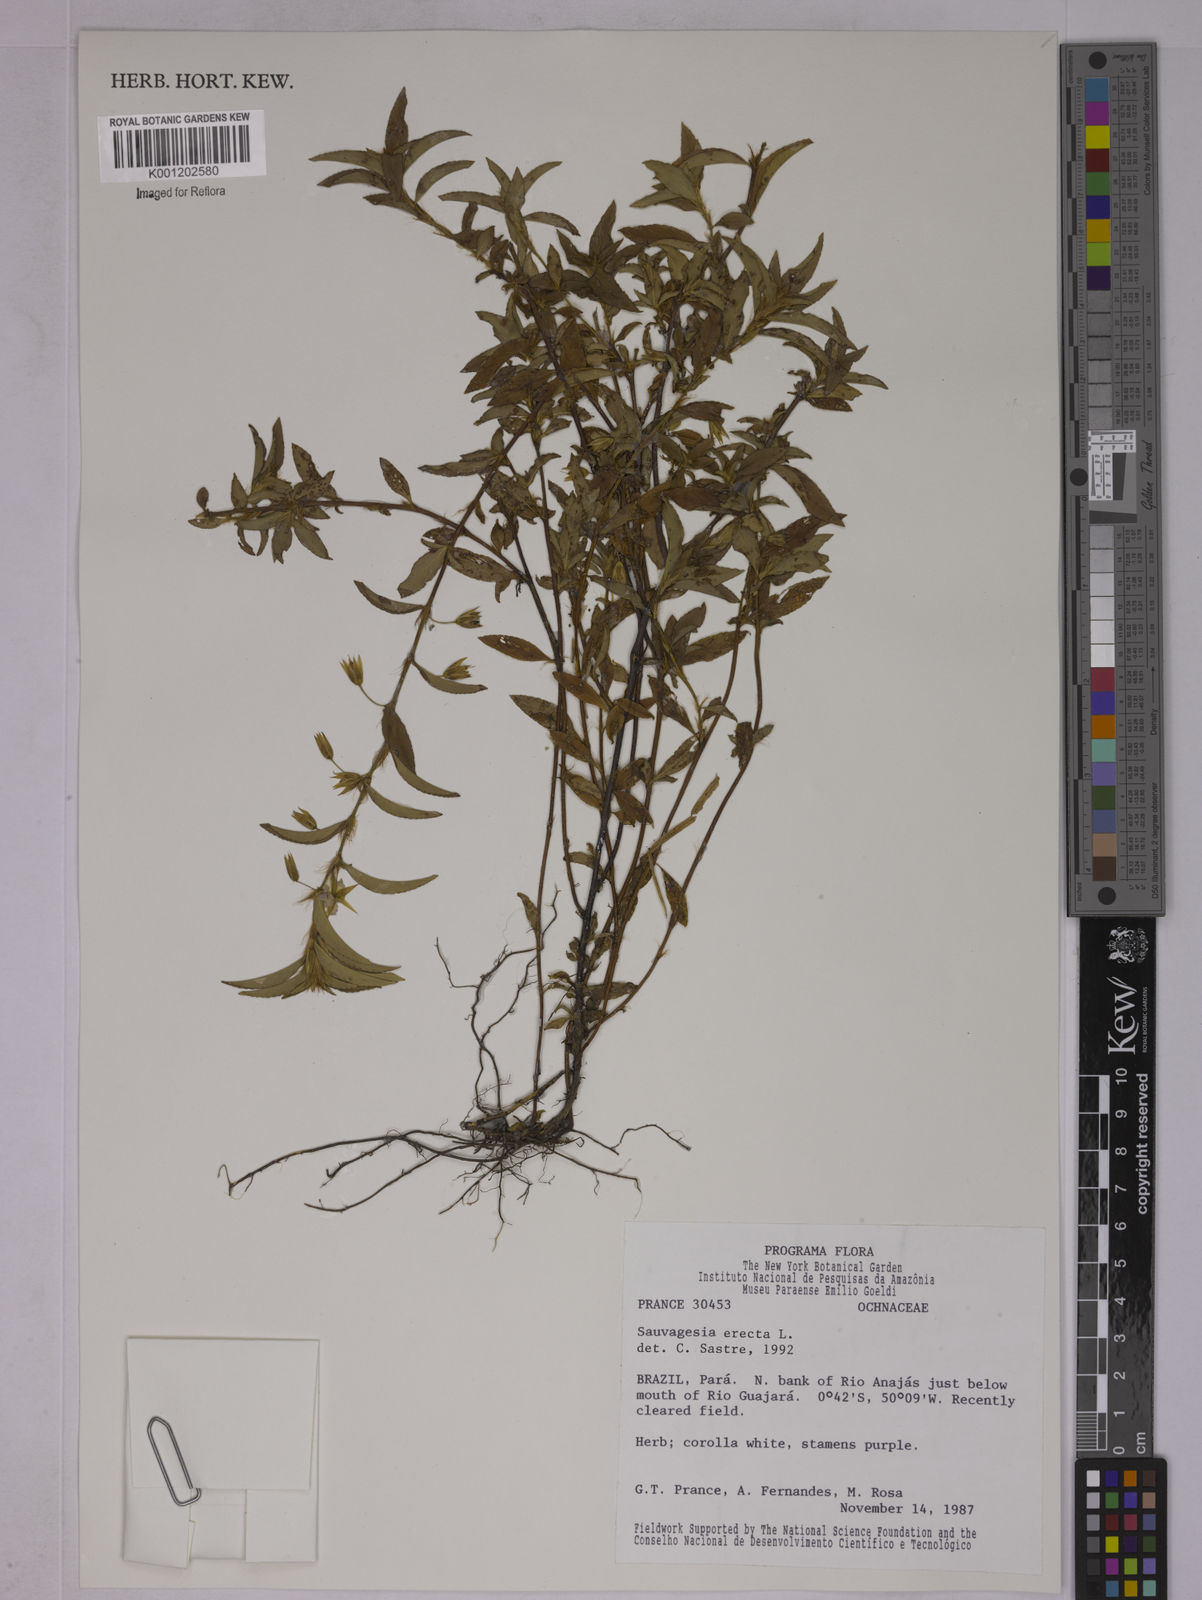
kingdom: Plantae
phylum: Tracheophyta
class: Magnoliopsida
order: Malpighiales
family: Ochnaceae
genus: Sauvagesia
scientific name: Sauvagesia erecta
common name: Creole tea
